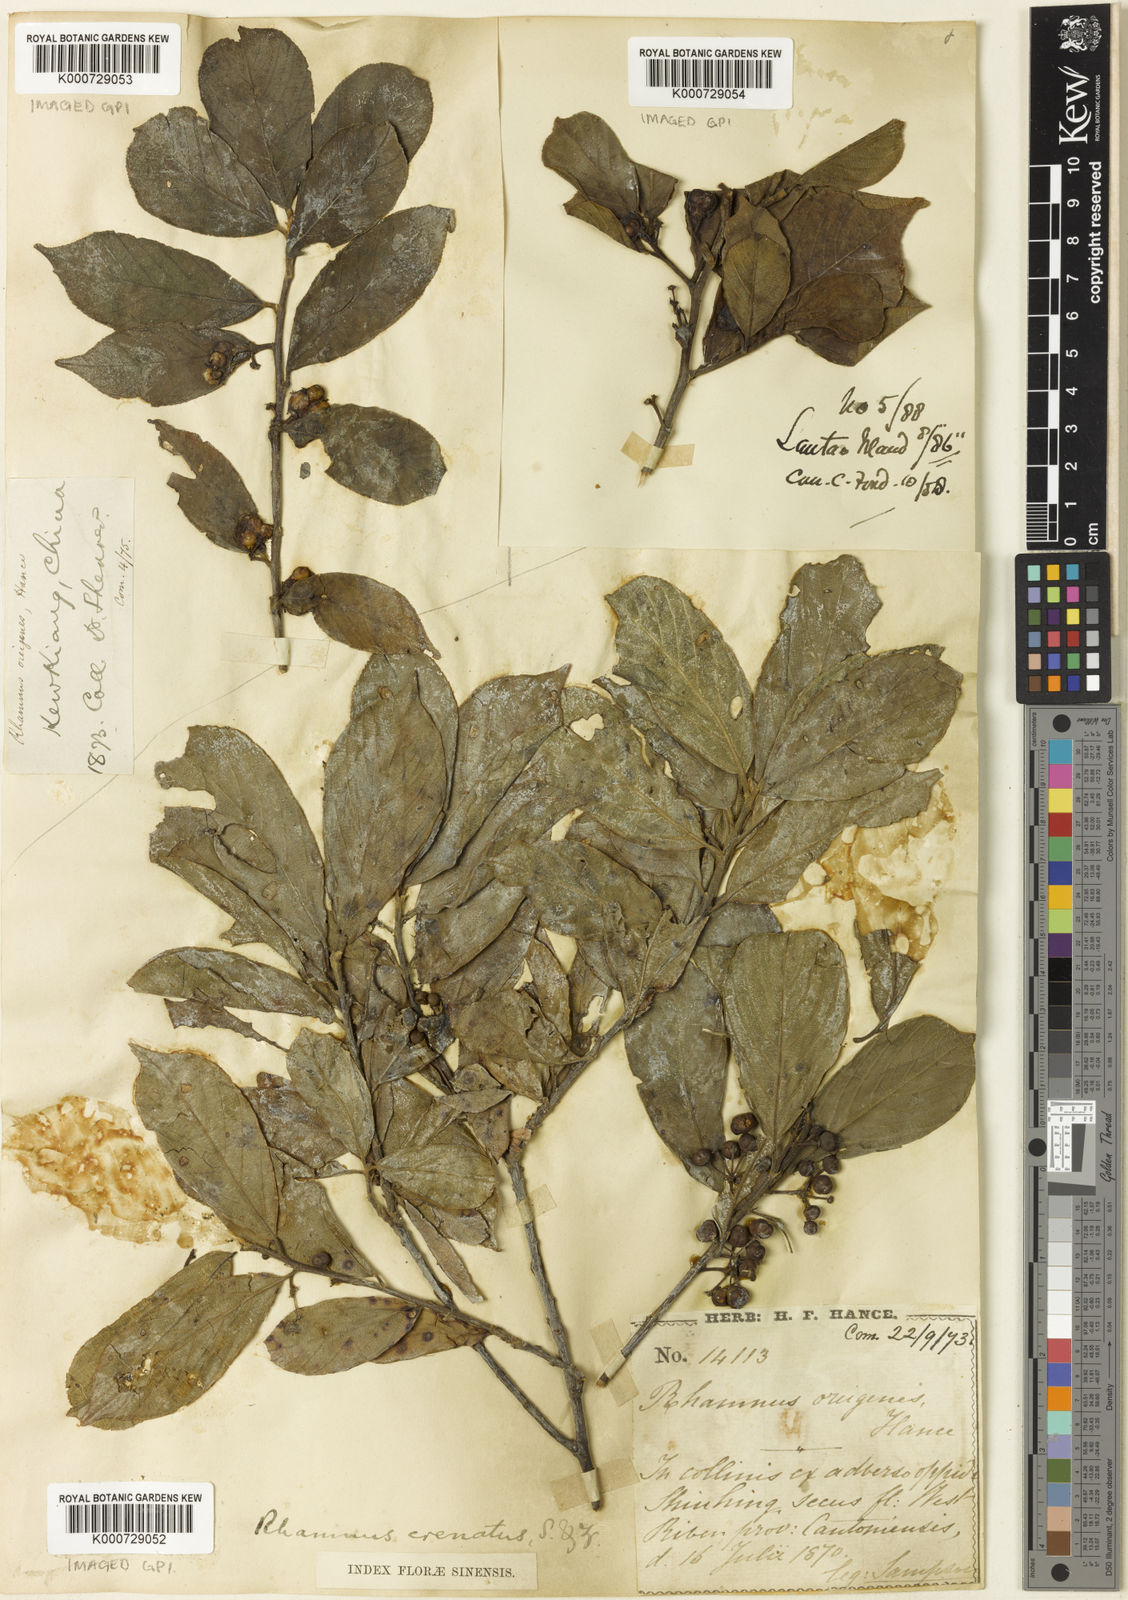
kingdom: Plantae
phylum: Tracheophyta
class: Magnoliopsida
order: Rosales
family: Rhamnaceae
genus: Frangula
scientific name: Frangula crenata
